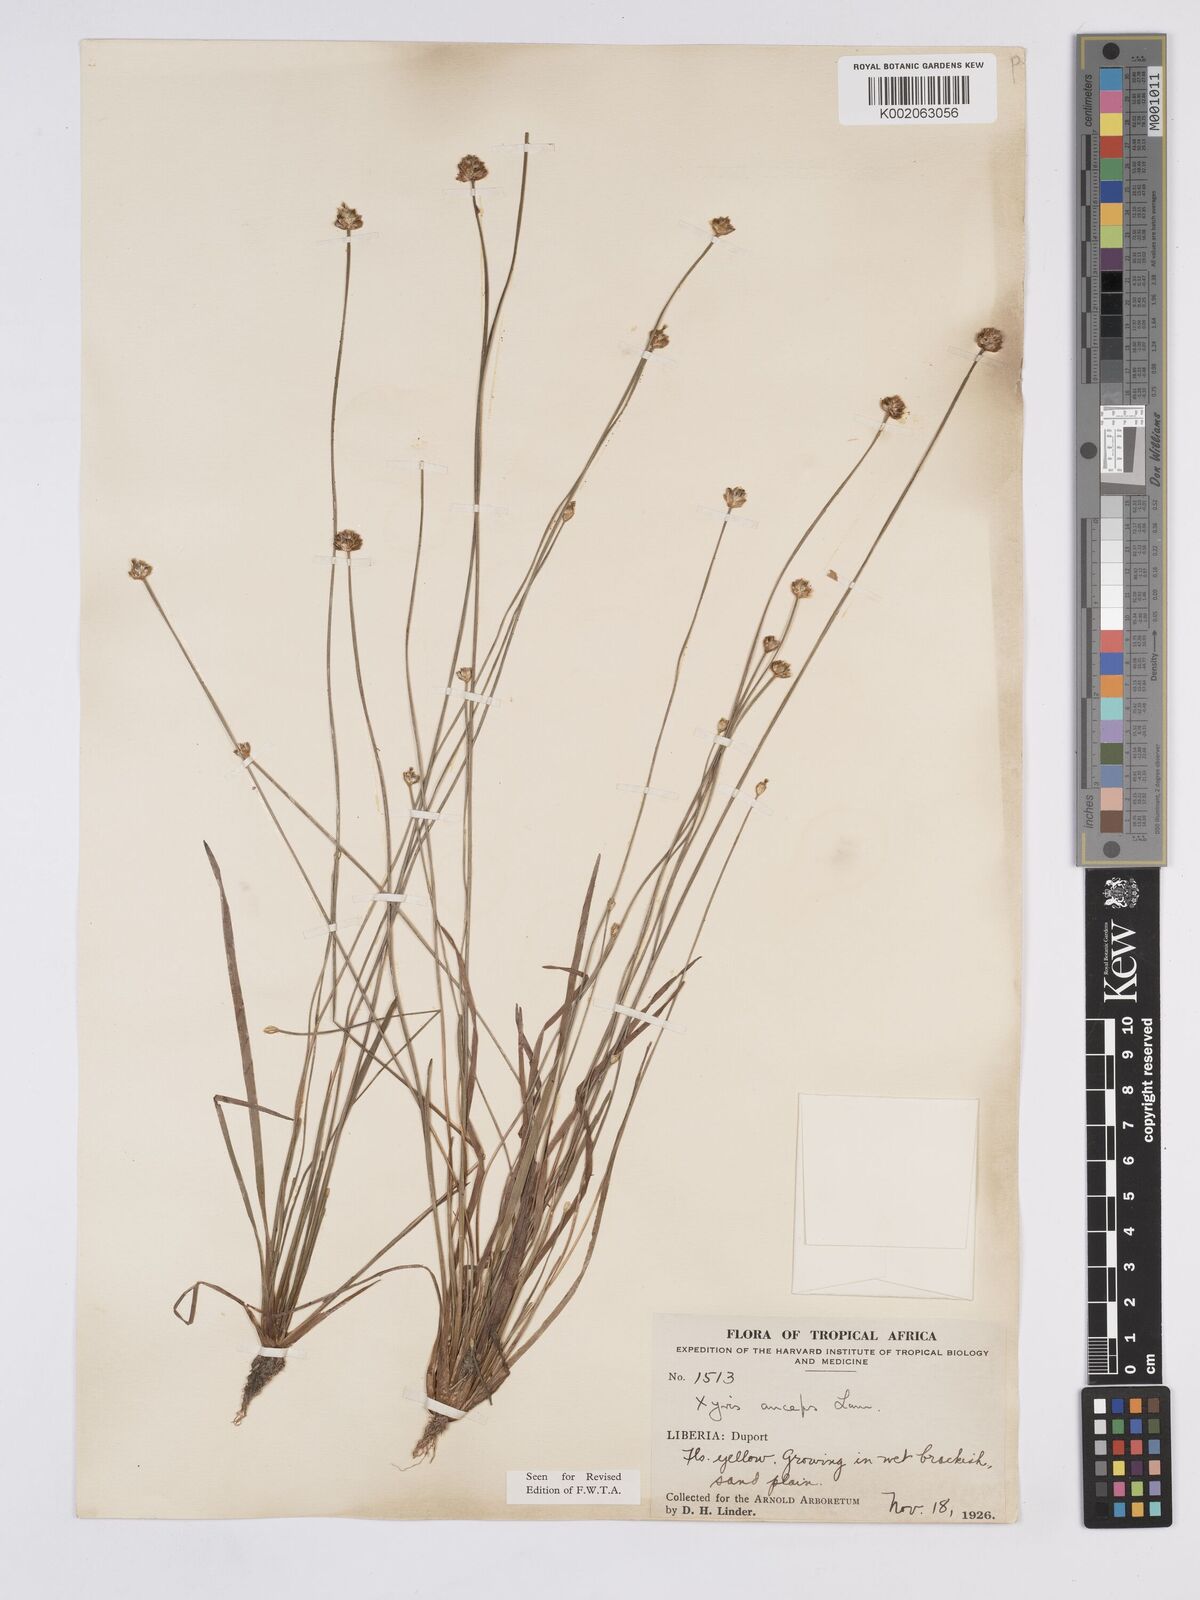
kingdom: Plantae
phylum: Tracheophyta
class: Liliopsida
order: Poales
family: Xyridaceae
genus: Xyris
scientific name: Xyris anceps
